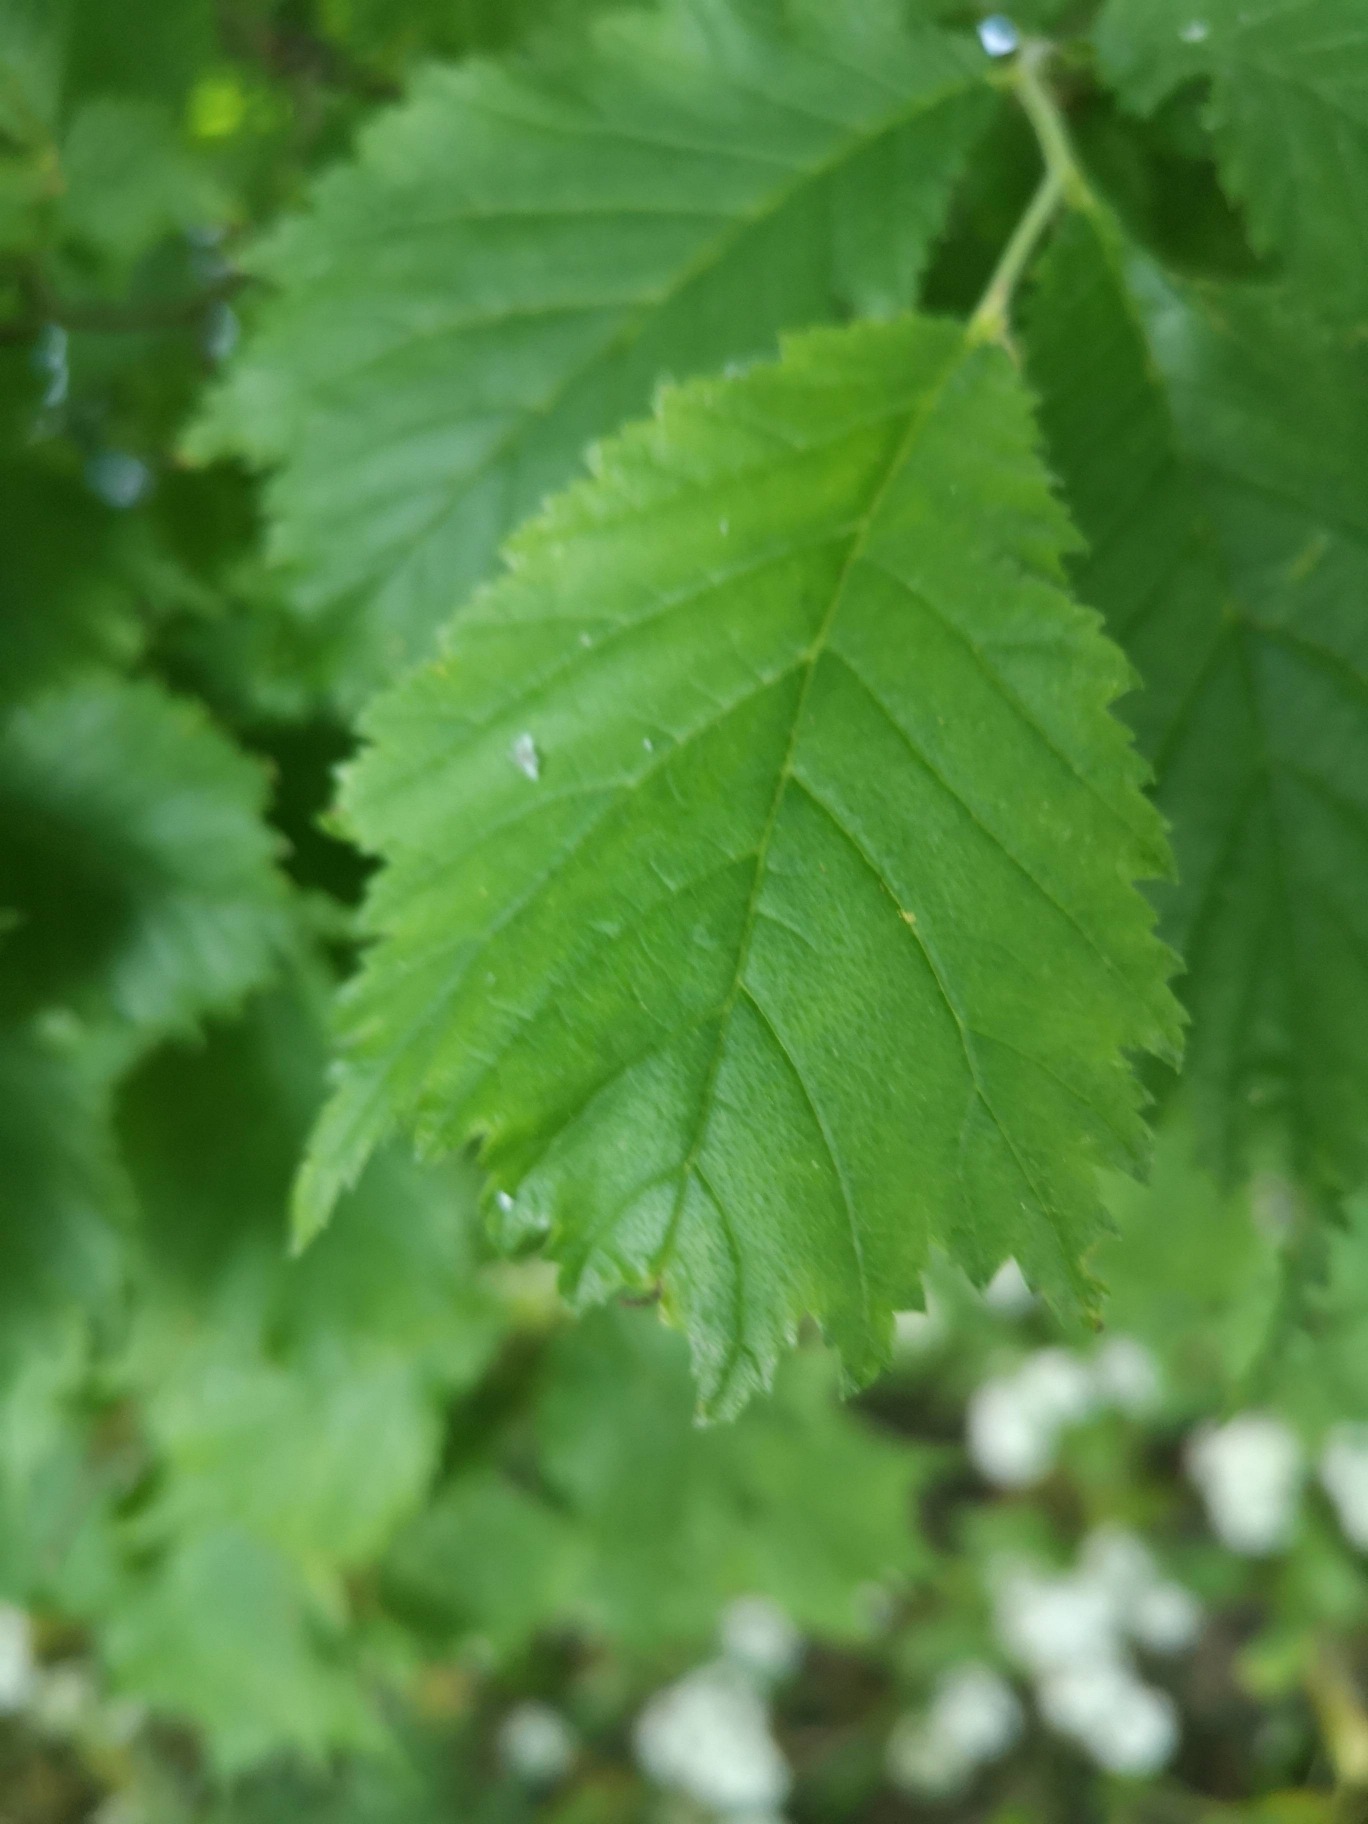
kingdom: Plantae
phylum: Tracheophyta
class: Magnoliopsida
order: Rosales
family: Ulmaceae
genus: Ulmus
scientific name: Ulmus glabra
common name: Skov-elm/storbladet elm
